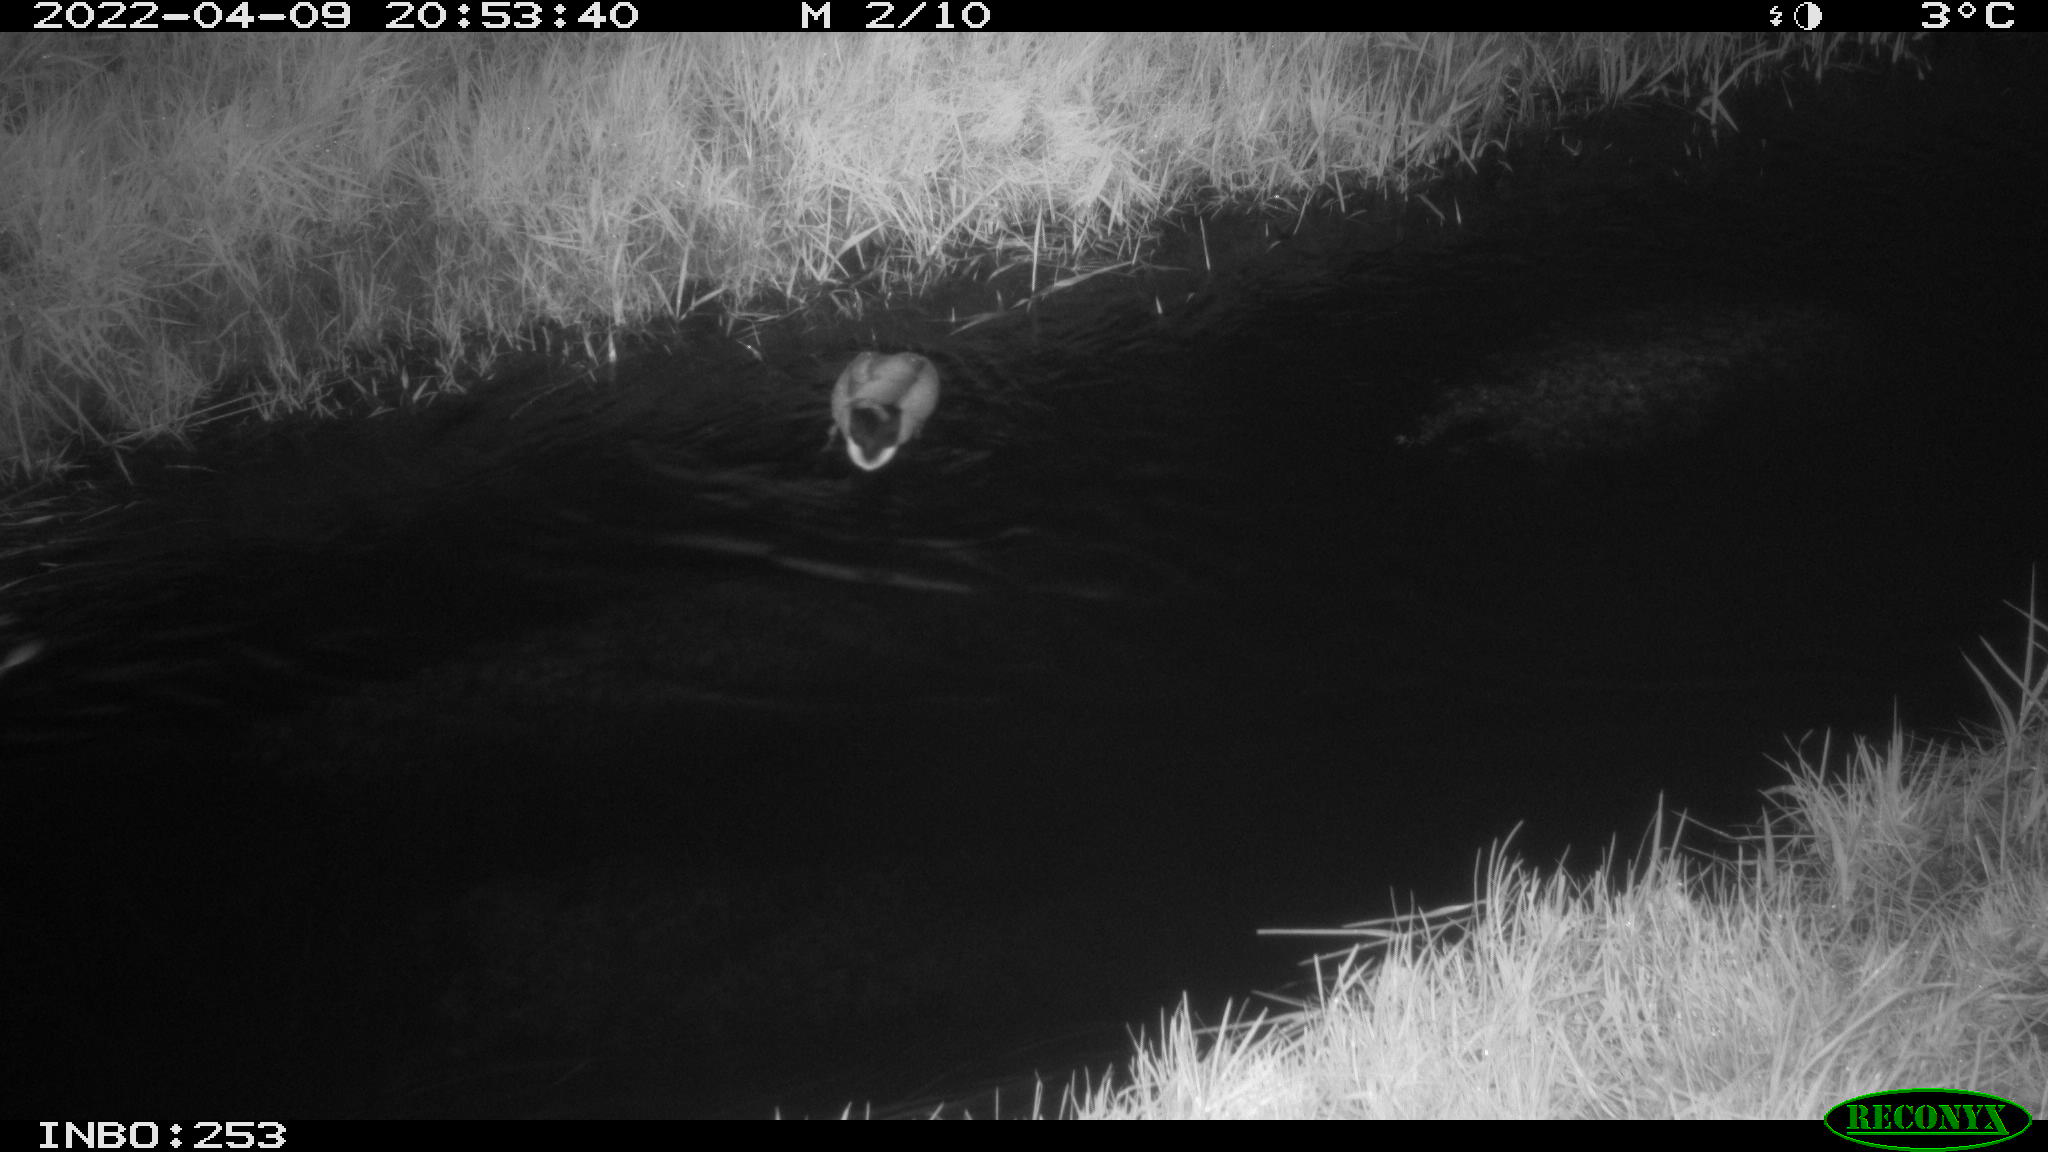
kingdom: Animalia
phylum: Chordata
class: Aves
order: Anseriformes
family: Anatidae
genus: Anas
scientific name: Anas platyrhynchos
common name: Mallard
